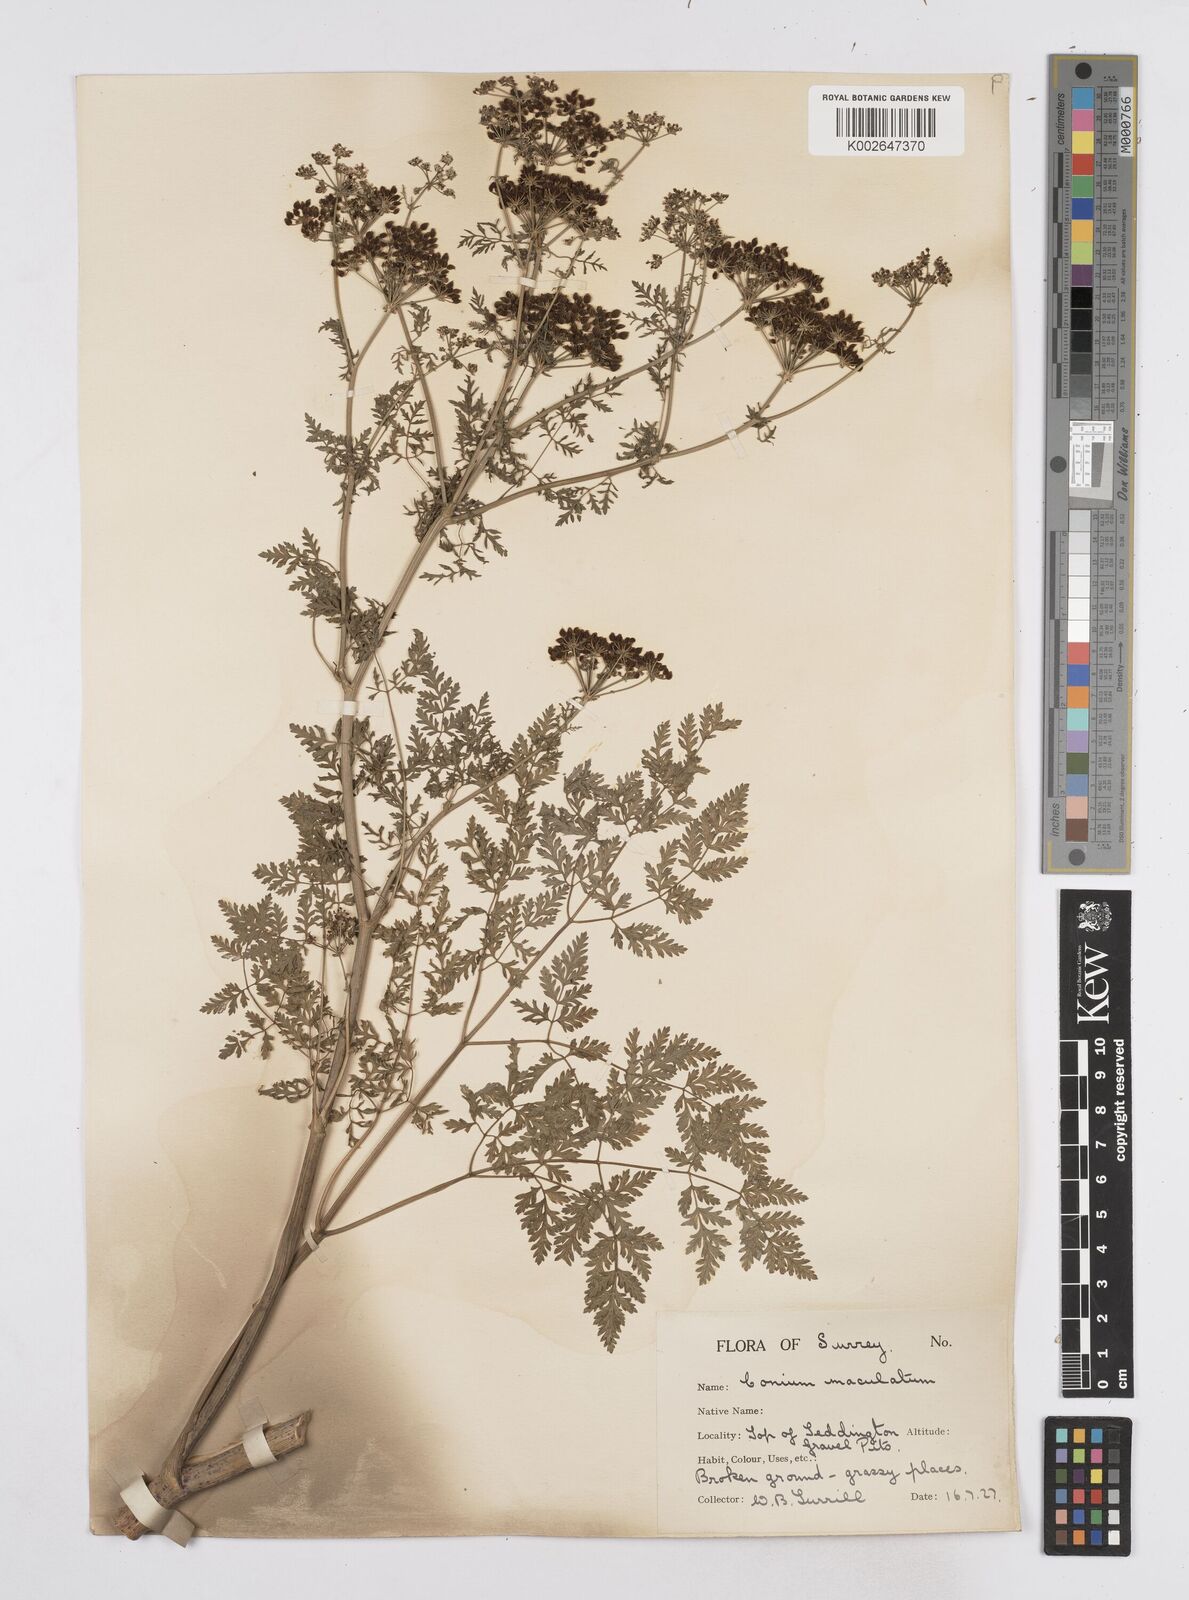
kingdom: Plantae
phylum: Tracheophyta
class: Magnoliopsida
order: Apiales
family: Apiaceae
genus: Conium
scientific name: Conium maculatum
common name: Hemlock
